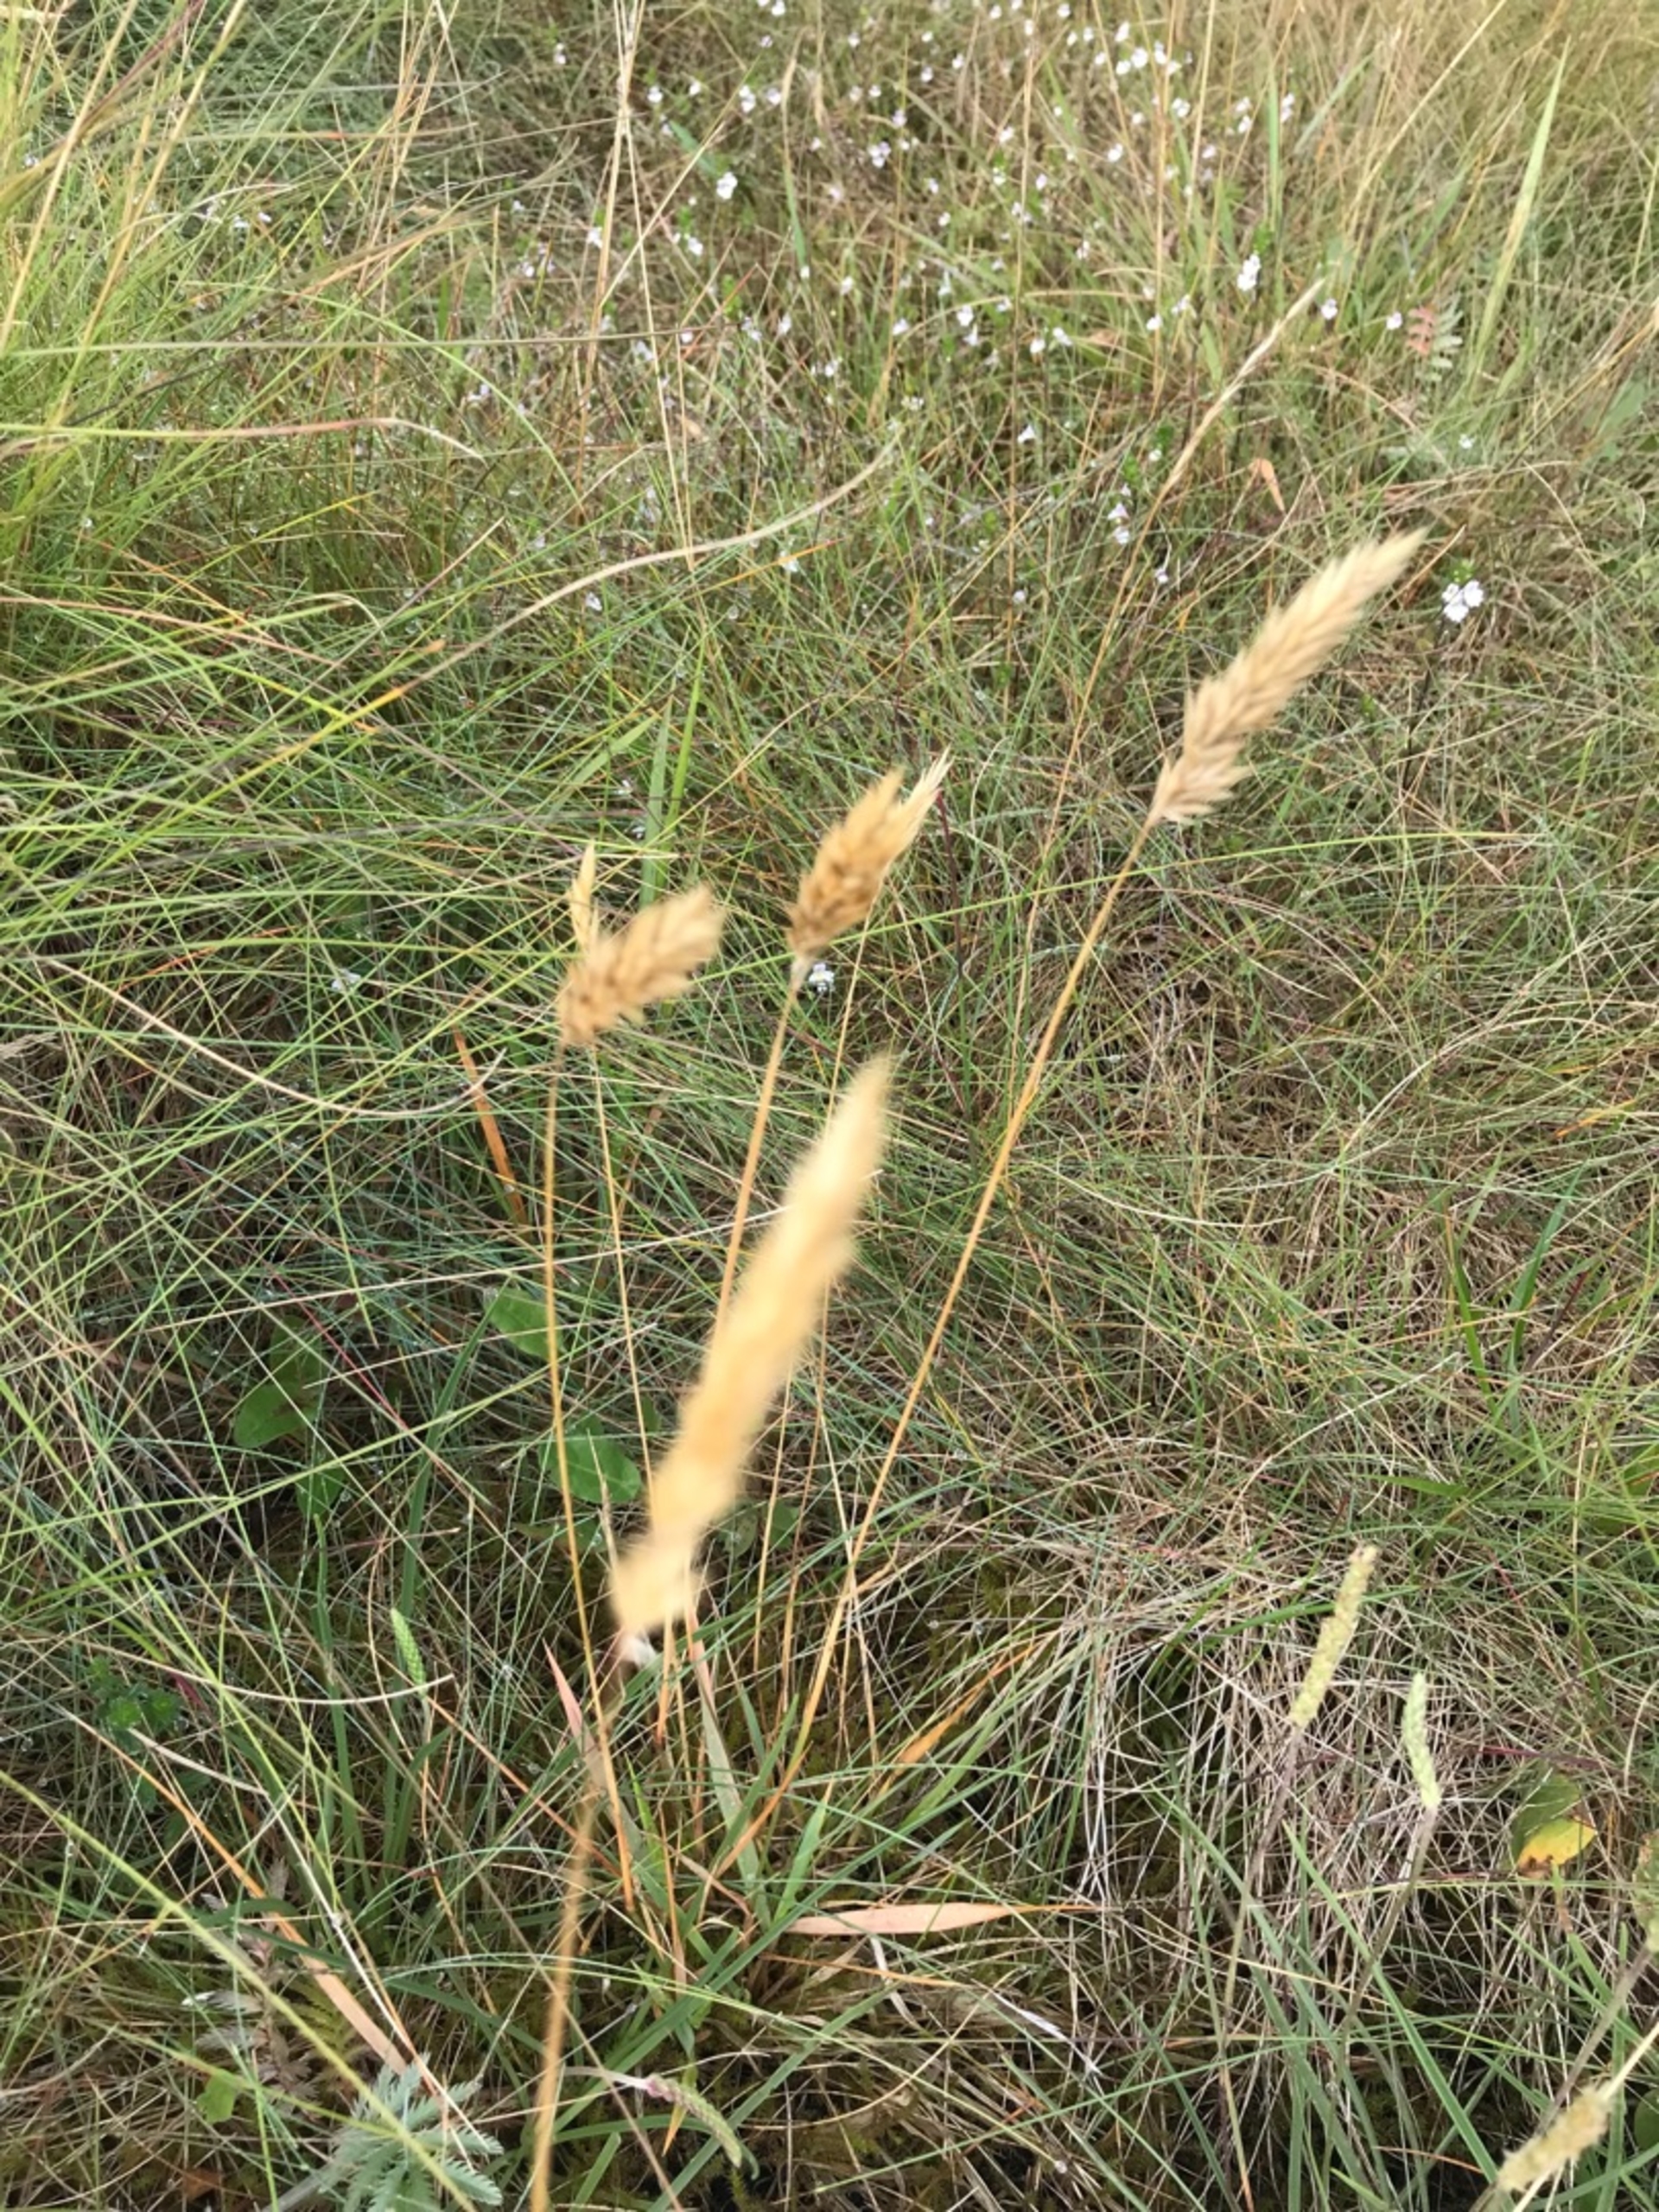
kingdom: Plantae
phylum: Tracheophyta
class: Liliopsida
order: Poales
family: Poaceae
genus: Anthoxanthum
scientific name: Anthoxanthum odoratum
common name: Vellugtende gulaks
